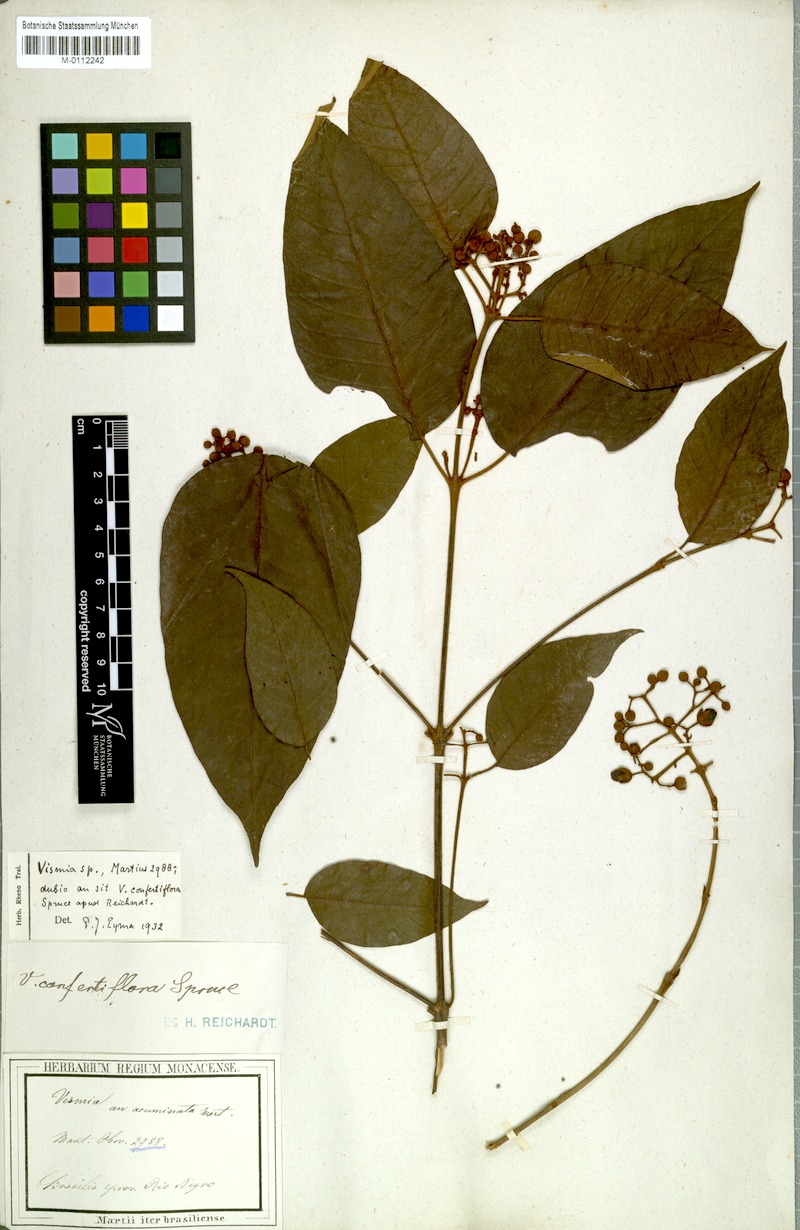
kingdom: Plantae
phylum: Tracheophyta
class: Magnoliopsida
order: Malpighiales
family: Hypericaceae
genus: Vismia
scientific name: Vismia baccifera
